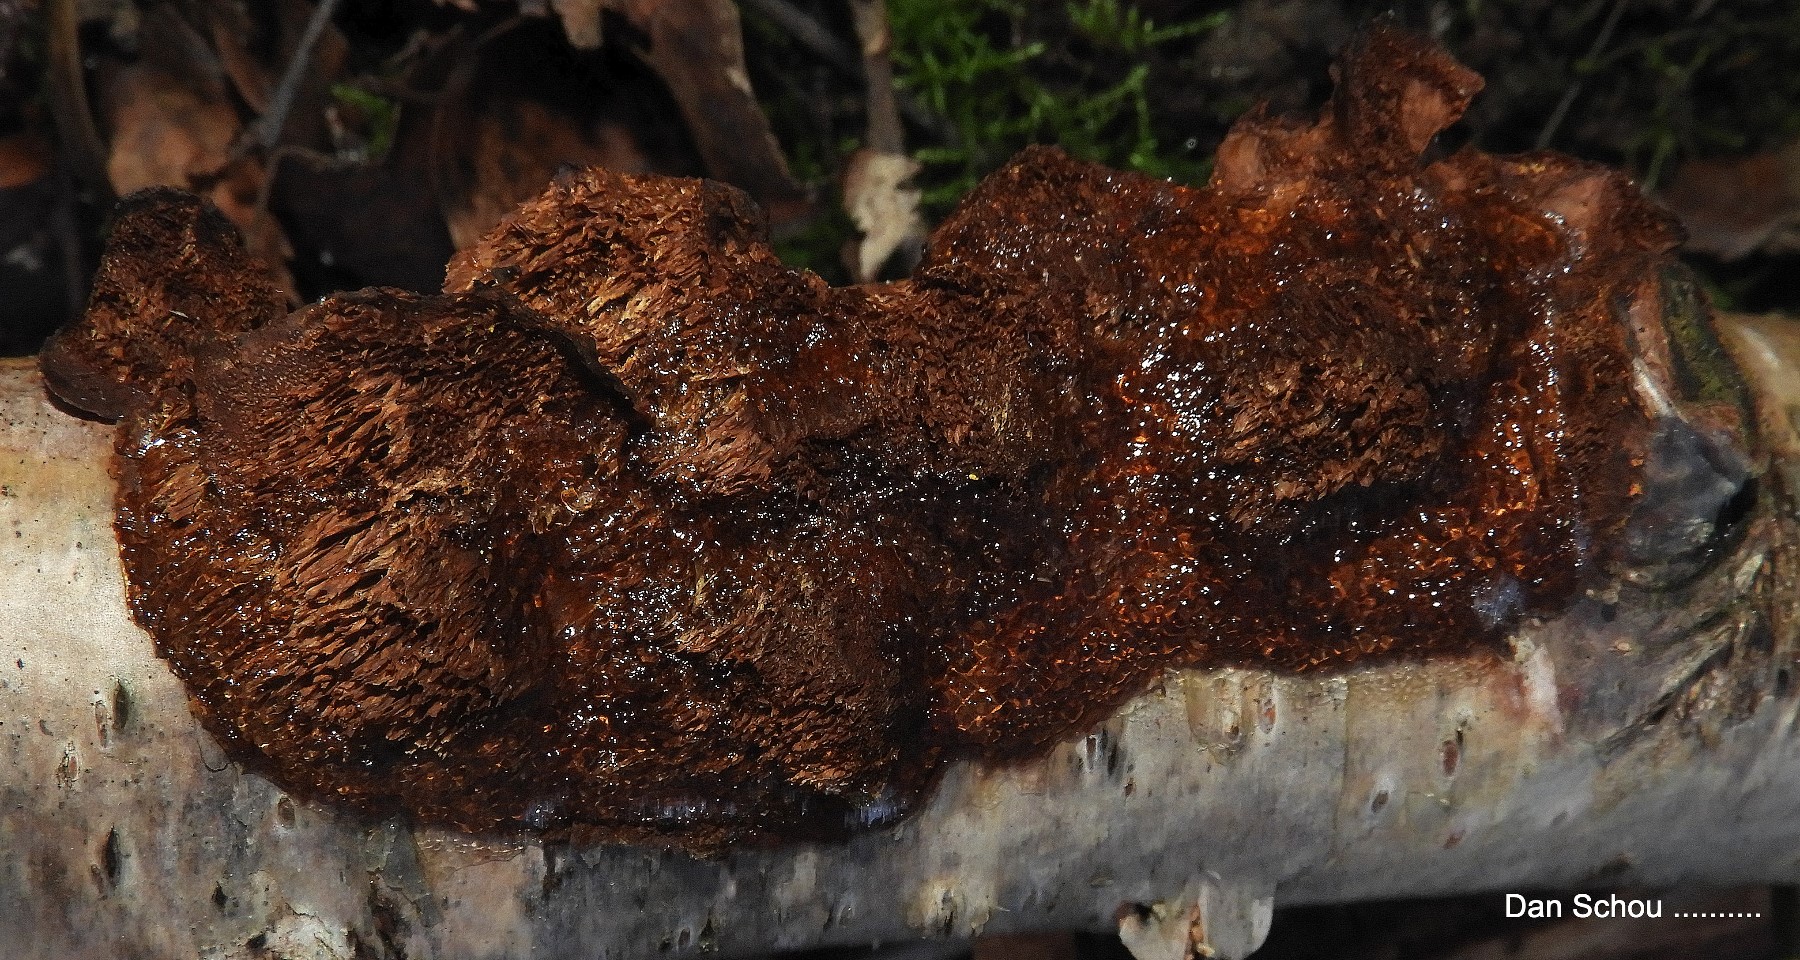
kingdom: Fungi
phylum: Basidiomycota
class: Agaricomycetes
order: Polyporales
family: Polyporaceae
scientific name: Polyporaceae
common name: poresvampfamilien
